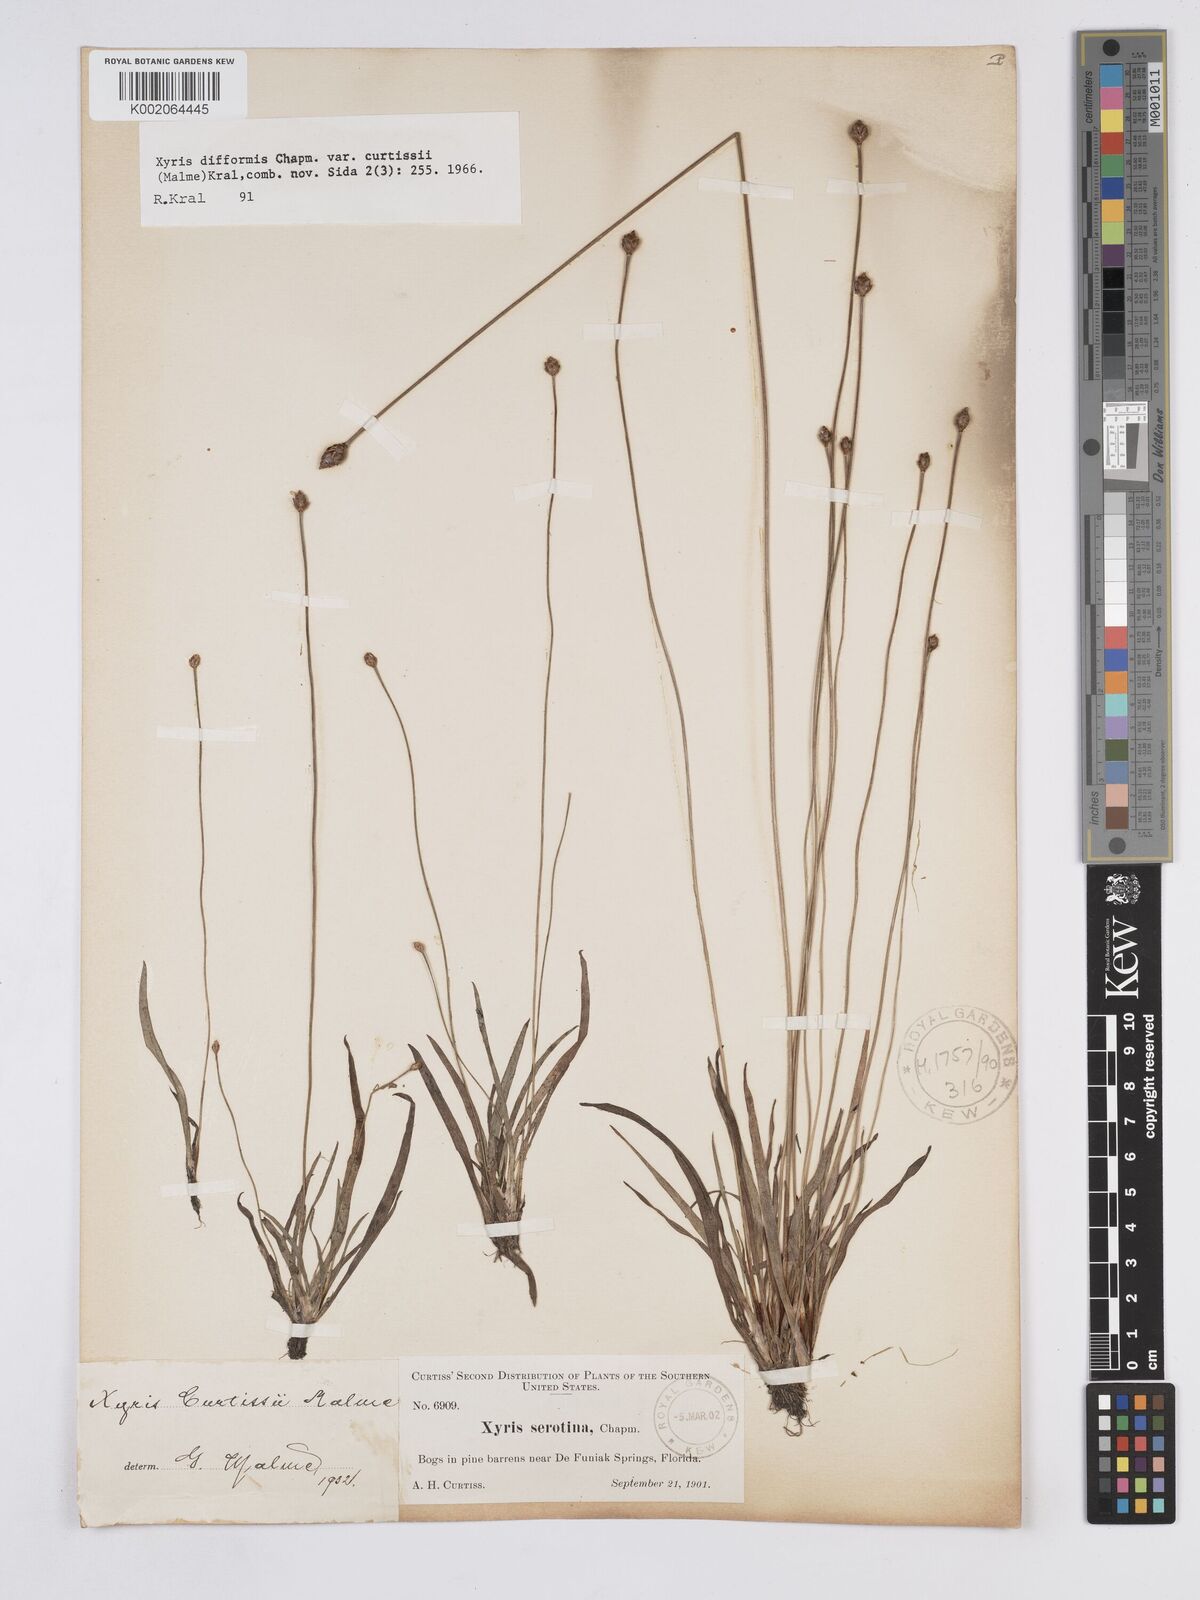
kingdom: Plantae
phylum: Tracheophyta
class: Liliopsida
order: Poales
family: Xyridaceae
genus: Xyris
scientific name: Xyris difformis
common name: Bog yellow-eyed-grass
